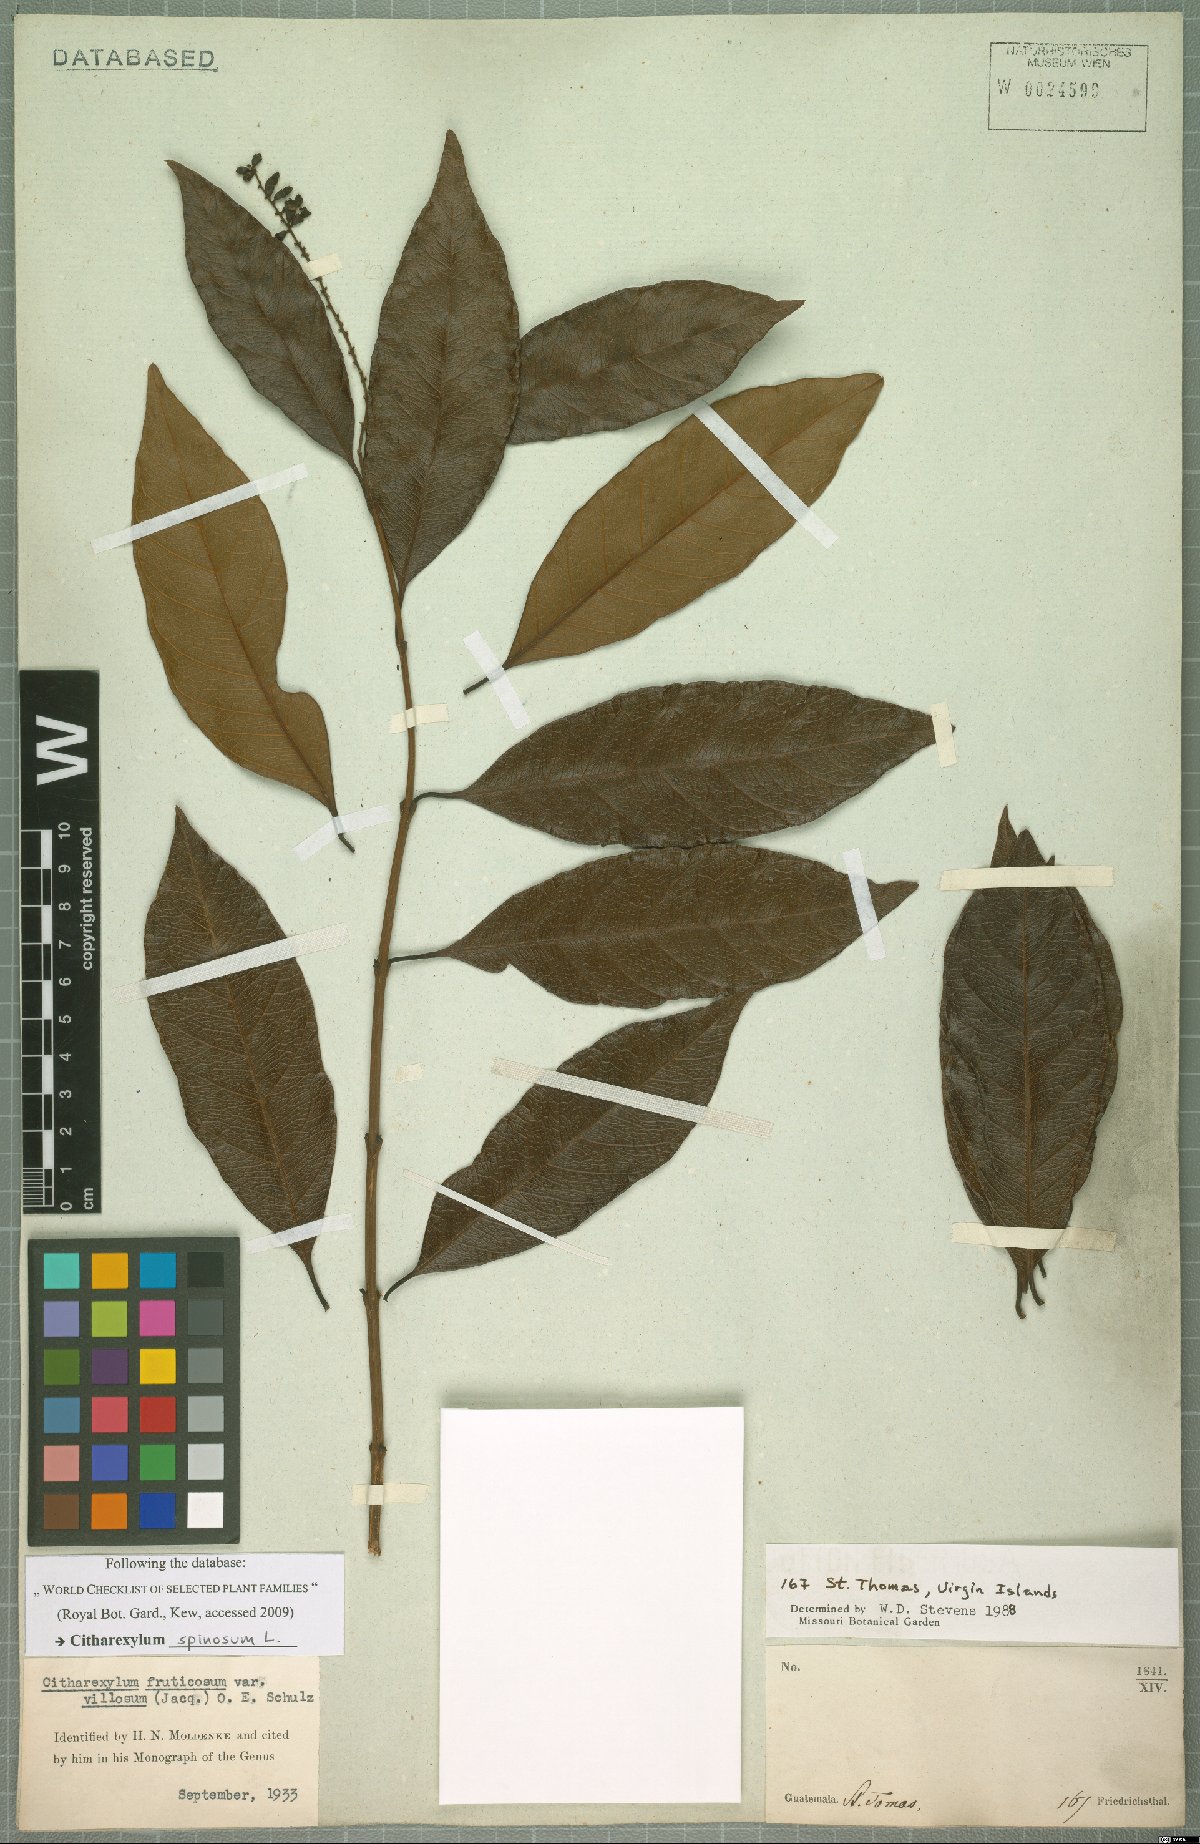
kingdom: Plantae
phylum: Tracheophyta
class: Magnoliopsida
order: Lamiales
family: Verbenaceae
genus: Citharexylum
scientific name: Citharexylum spinosum
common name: Fiddlewood
